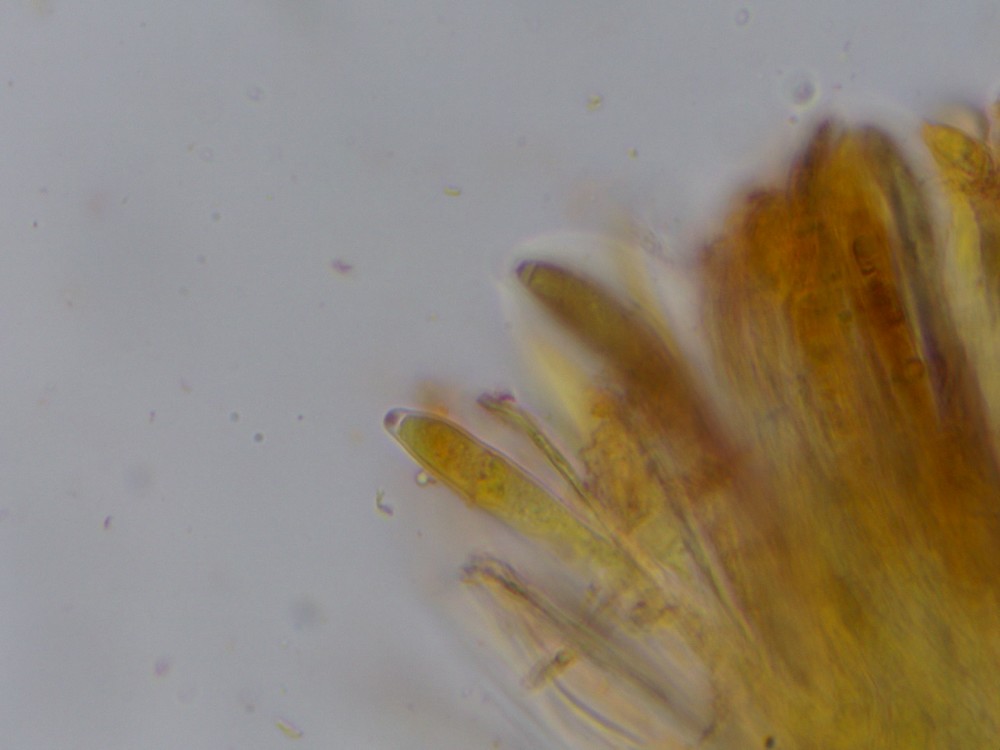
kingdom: Fungi
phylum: Ascomycota
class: Leotiomycetes
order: Helotiales
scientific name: Helotiales
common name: stilkskiveordenen
